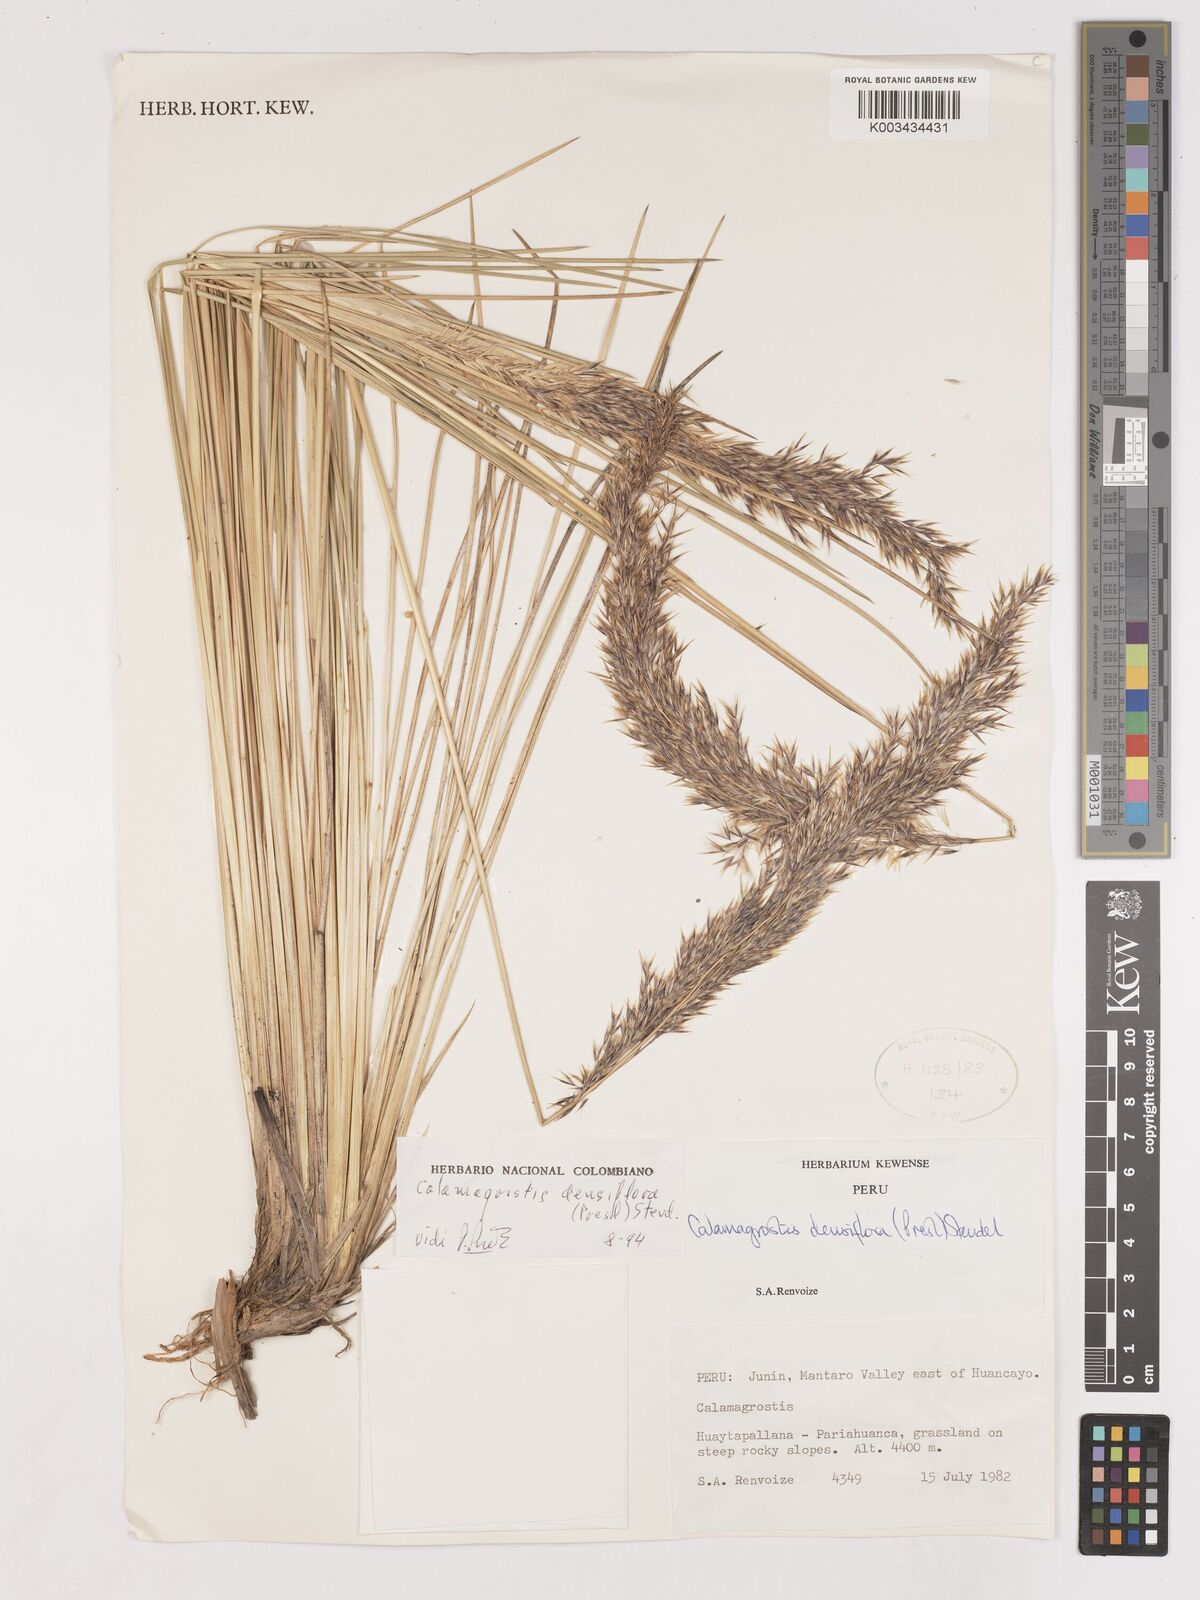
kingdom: Plantae
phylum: Tracheophyta
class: Liliopsida
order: Poales
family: Poaceae
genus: Cinnagrostis
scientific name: Cinnagrostis densiflora
